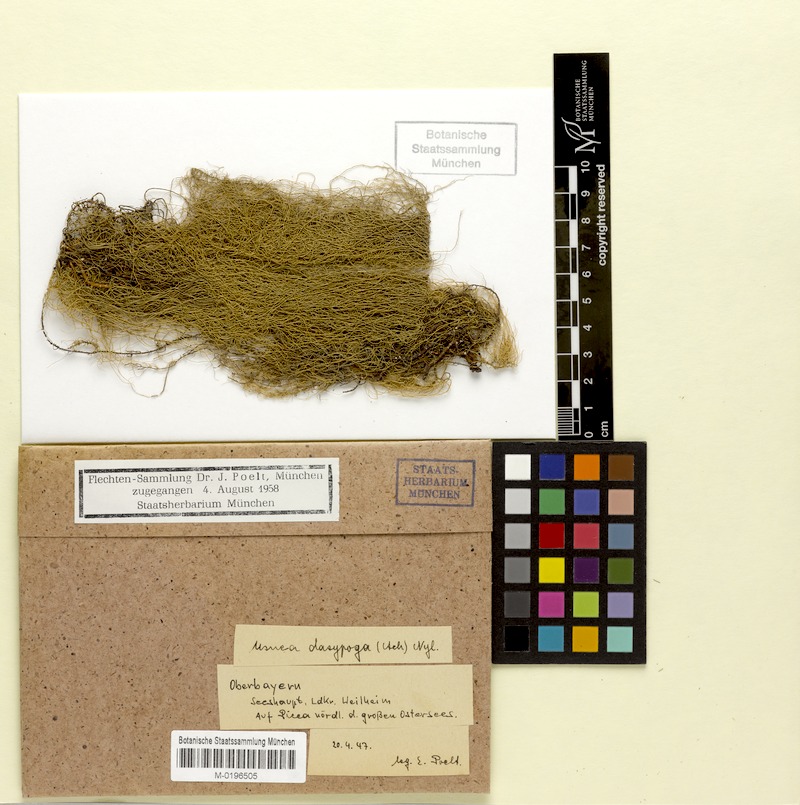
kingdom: Fungi
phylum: Ascomycota
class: Lecanoromycetes
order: Lecanorales
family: Parmeliaceae
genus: Usnea
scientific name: Usnea dasopoga
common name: Fishbone beard lichen
